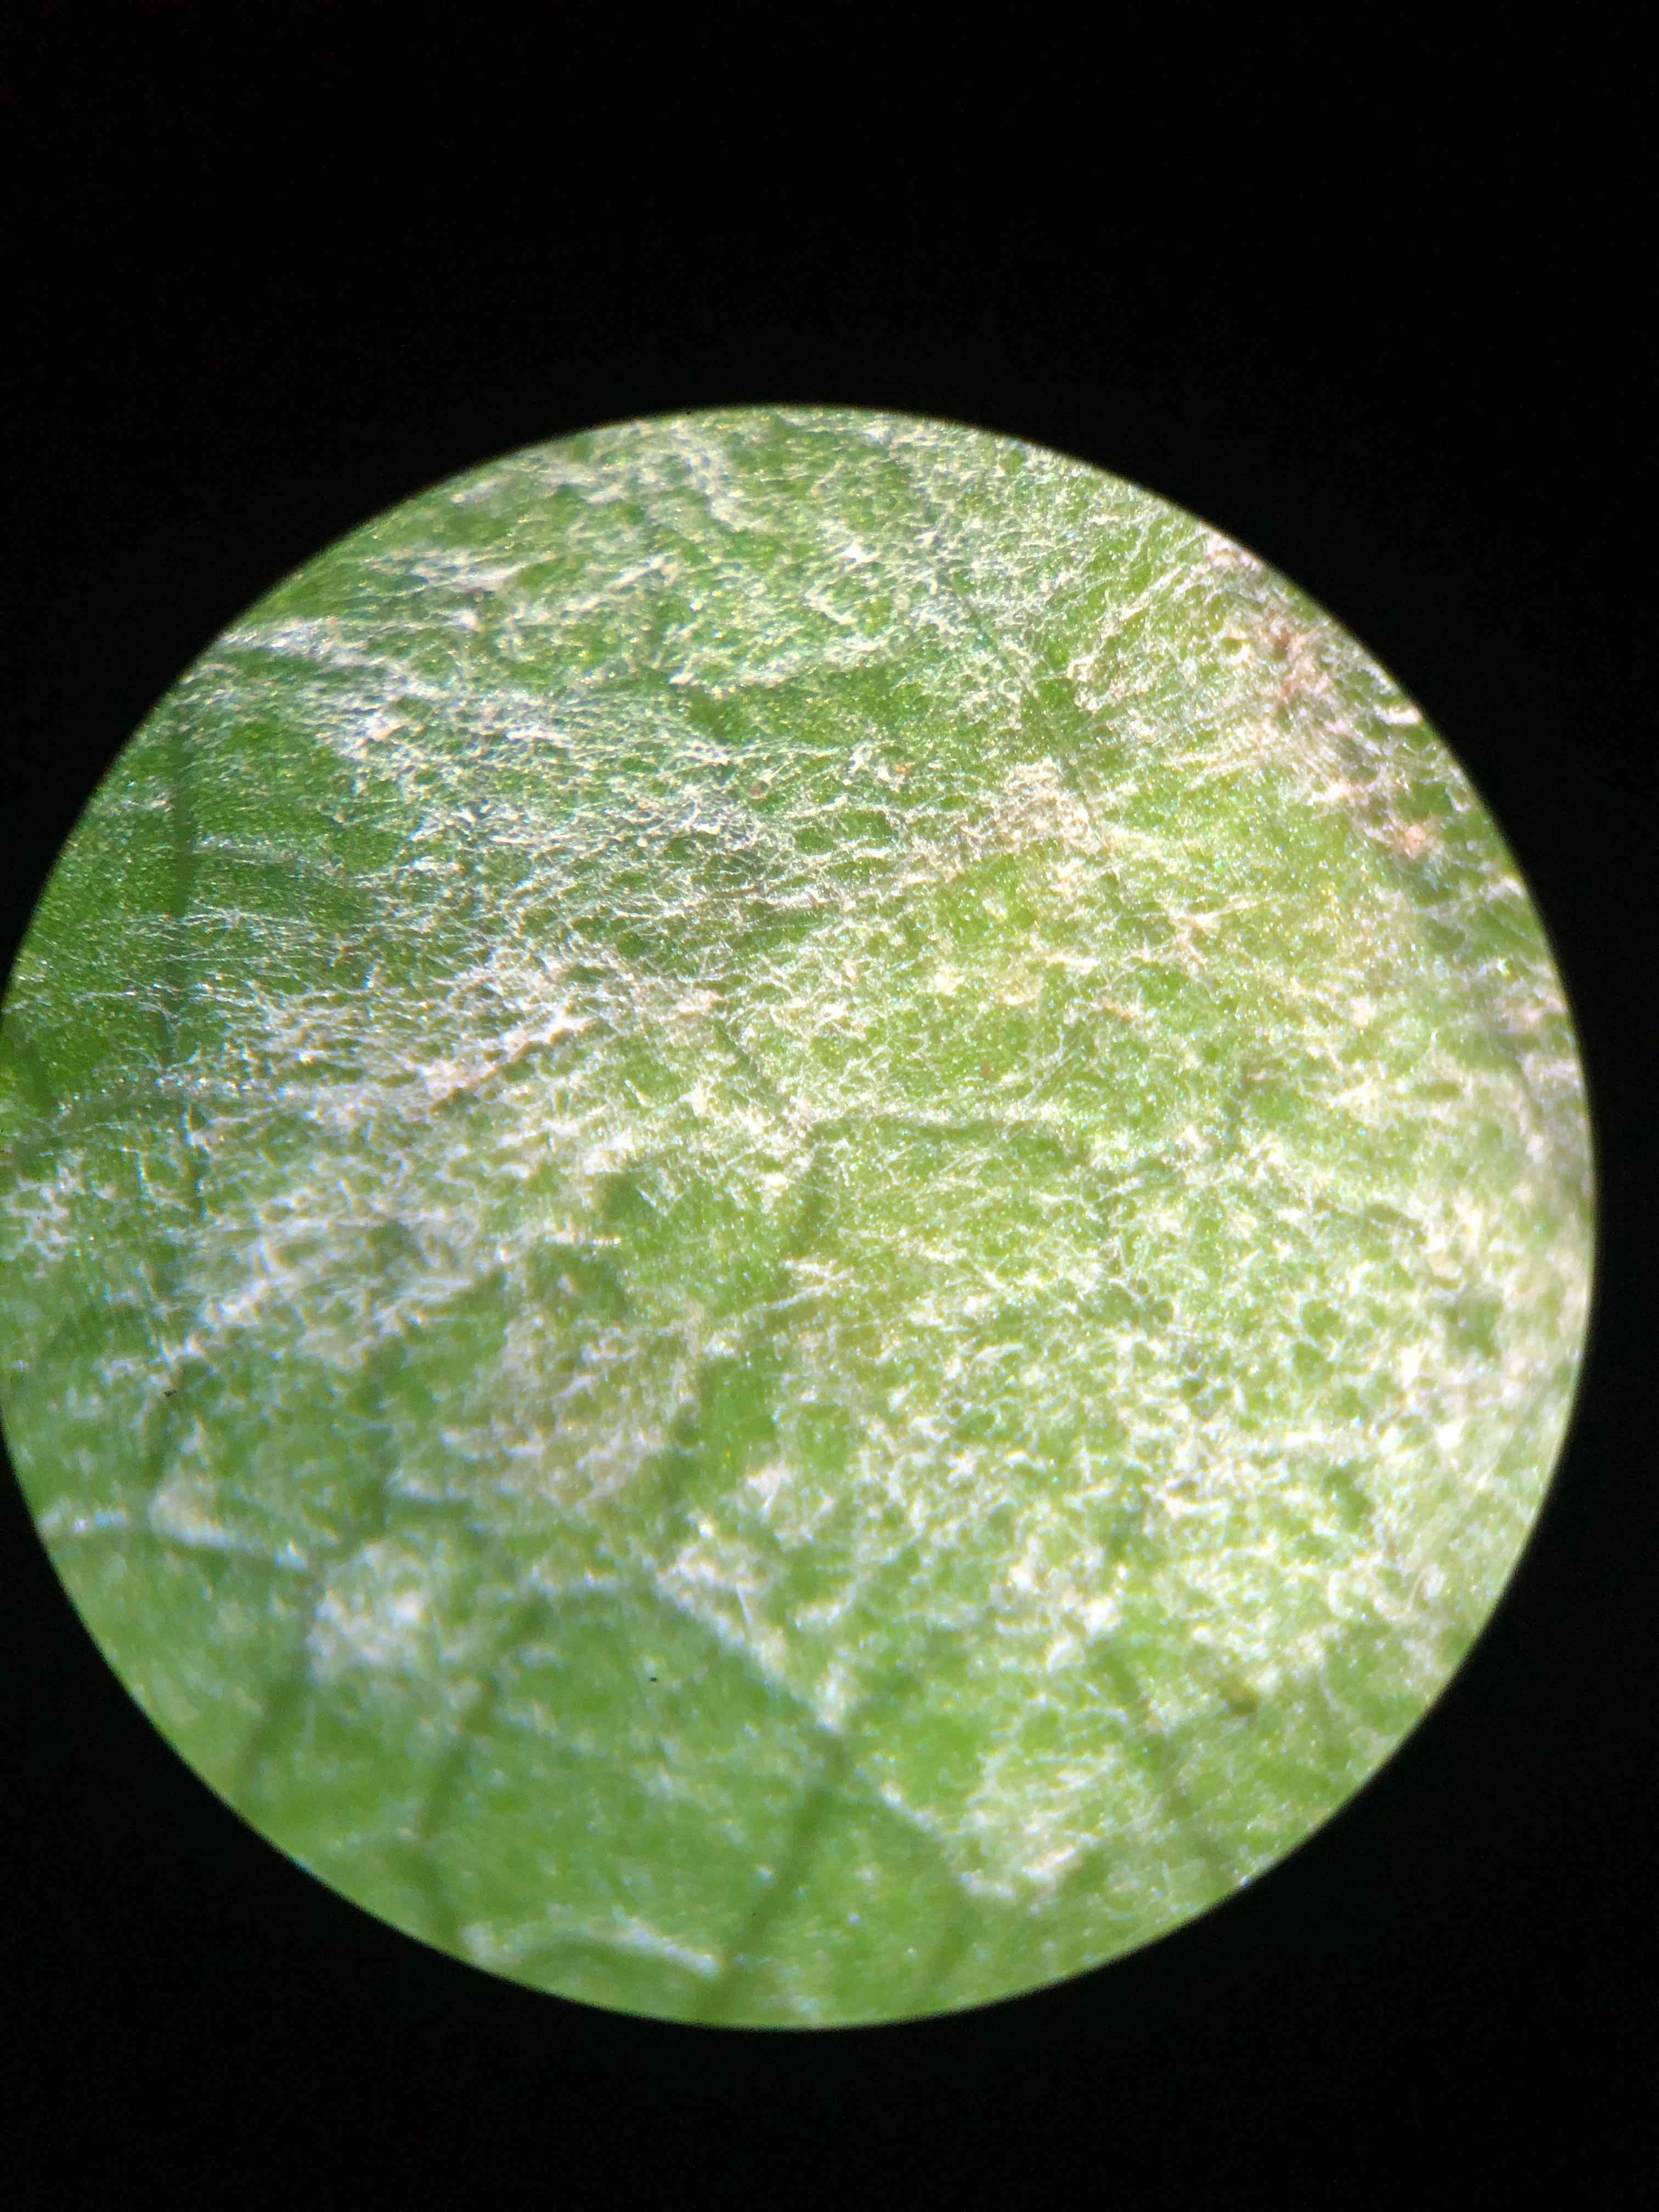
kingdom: Fungi
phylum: Ascomycota
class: Leotiomycetes
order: Helotiales
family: Erysiphaceae
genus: Sawadaea
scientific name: Sawadaea bicornis
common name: Maple mildew
